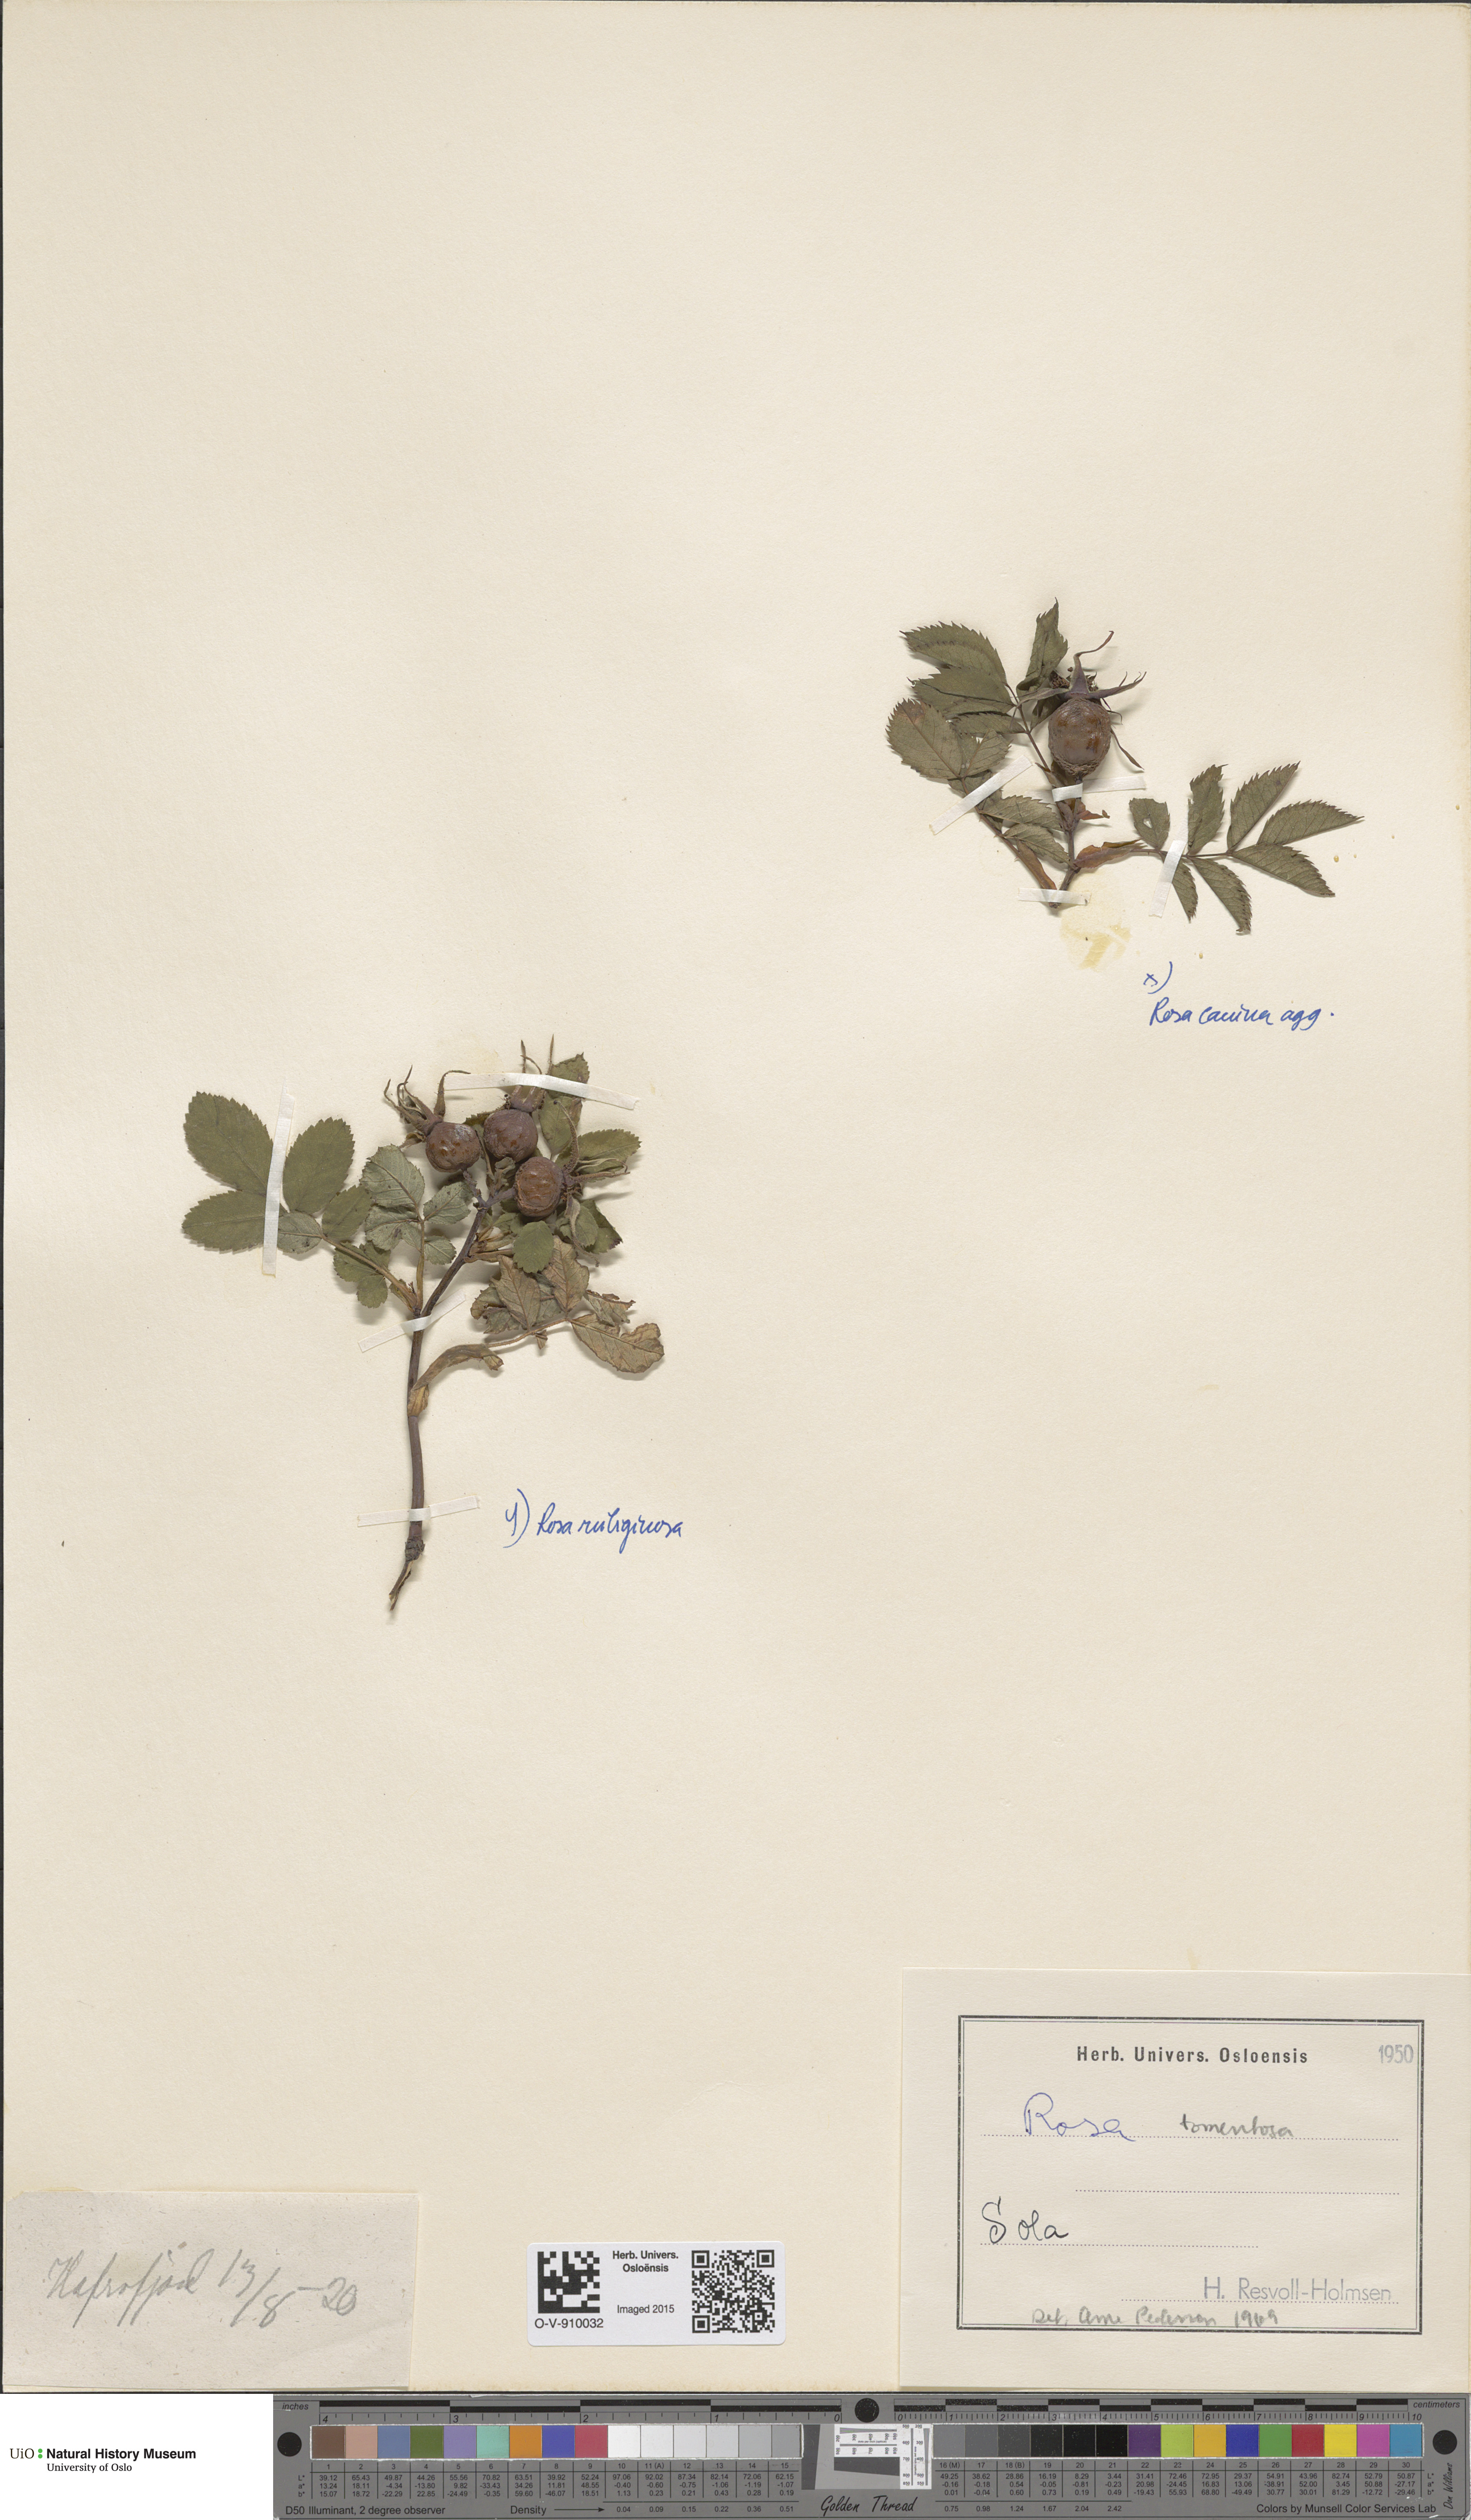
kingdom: Plantae
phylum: Tracheophyta
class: Magnoliopsida
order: Rosales
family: Rosaceae
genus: Rosa
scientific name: Rosa canina
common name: Dog rose
